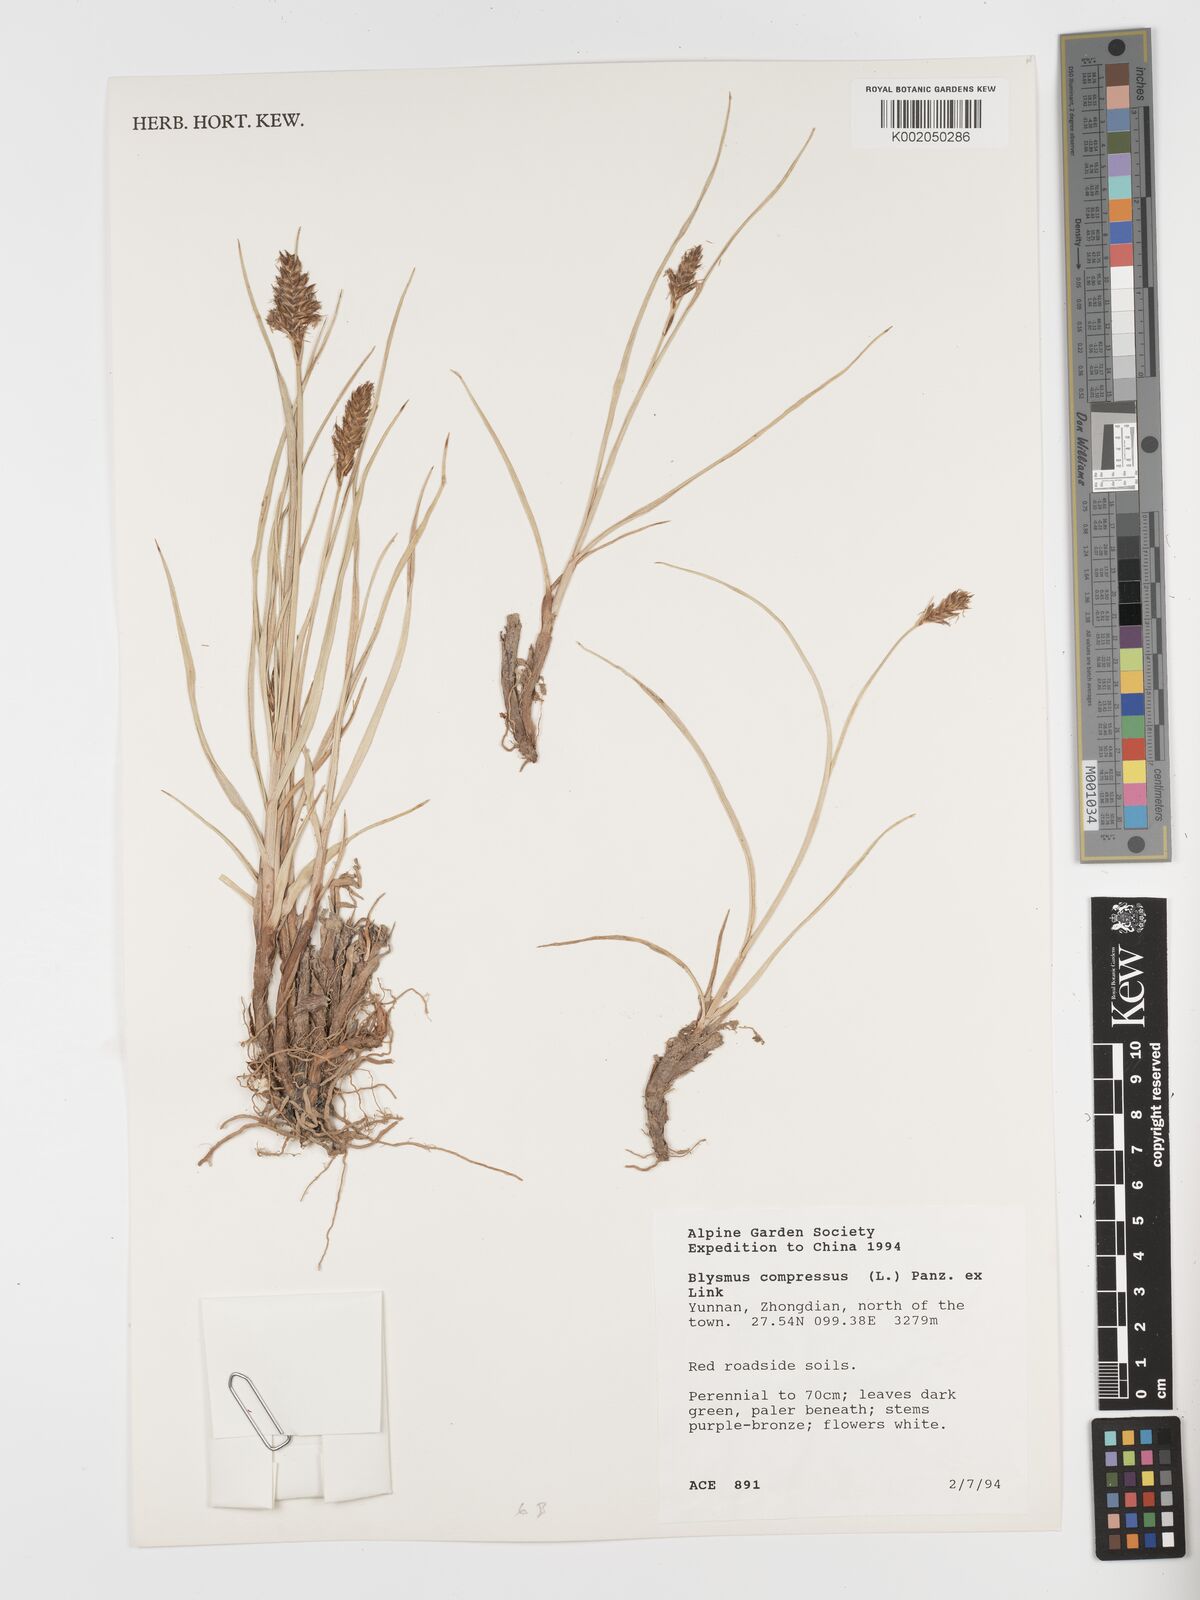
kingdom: Plantae
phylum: Tracheophyta
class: Liliopsida
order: Poales
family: Cyperaceae
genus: Blysmus
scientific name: Blysmus compressus
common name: Flat-sedge
